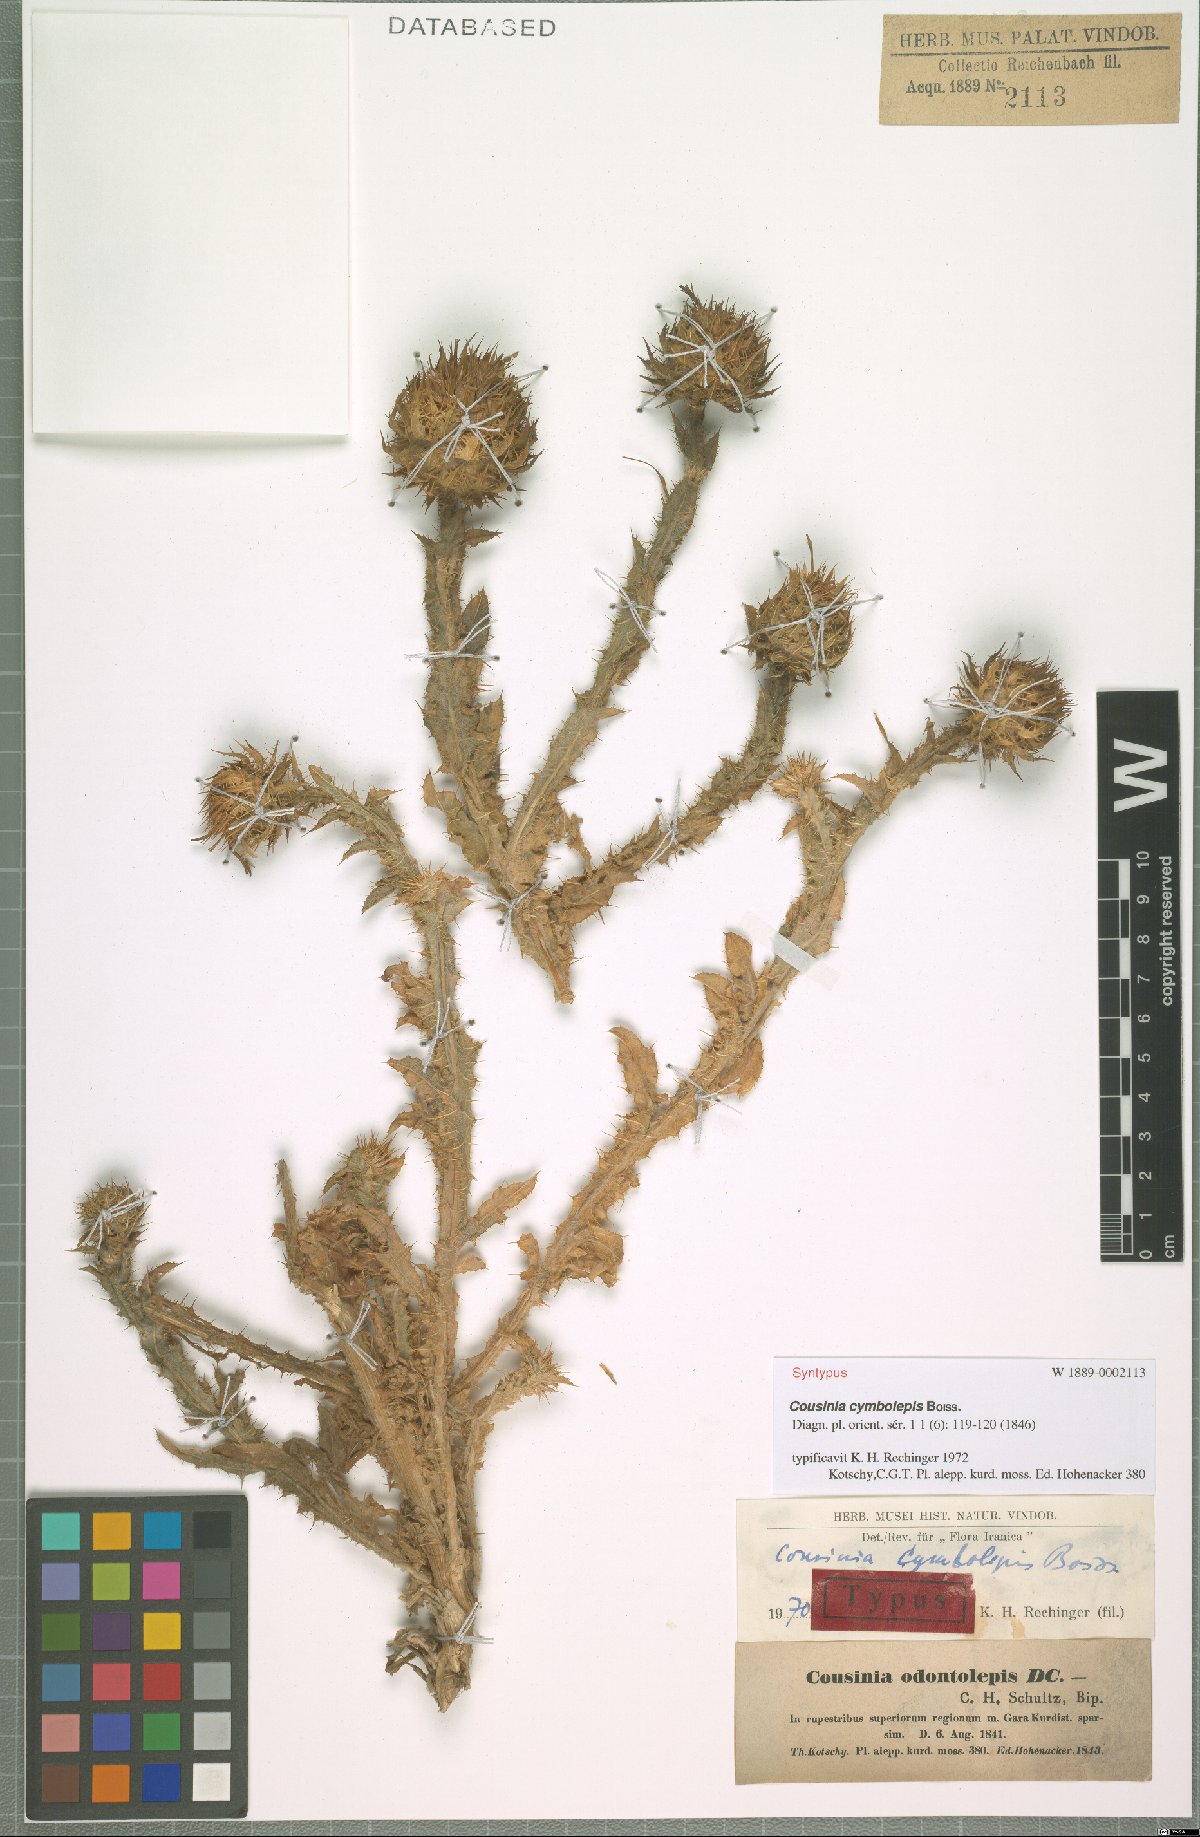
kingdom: Plantae
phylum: Tracheophyta
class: Magnoliopsida
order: Asterales
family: Asteraceae
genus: Cousinia
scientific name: Cousinia odontolepis
